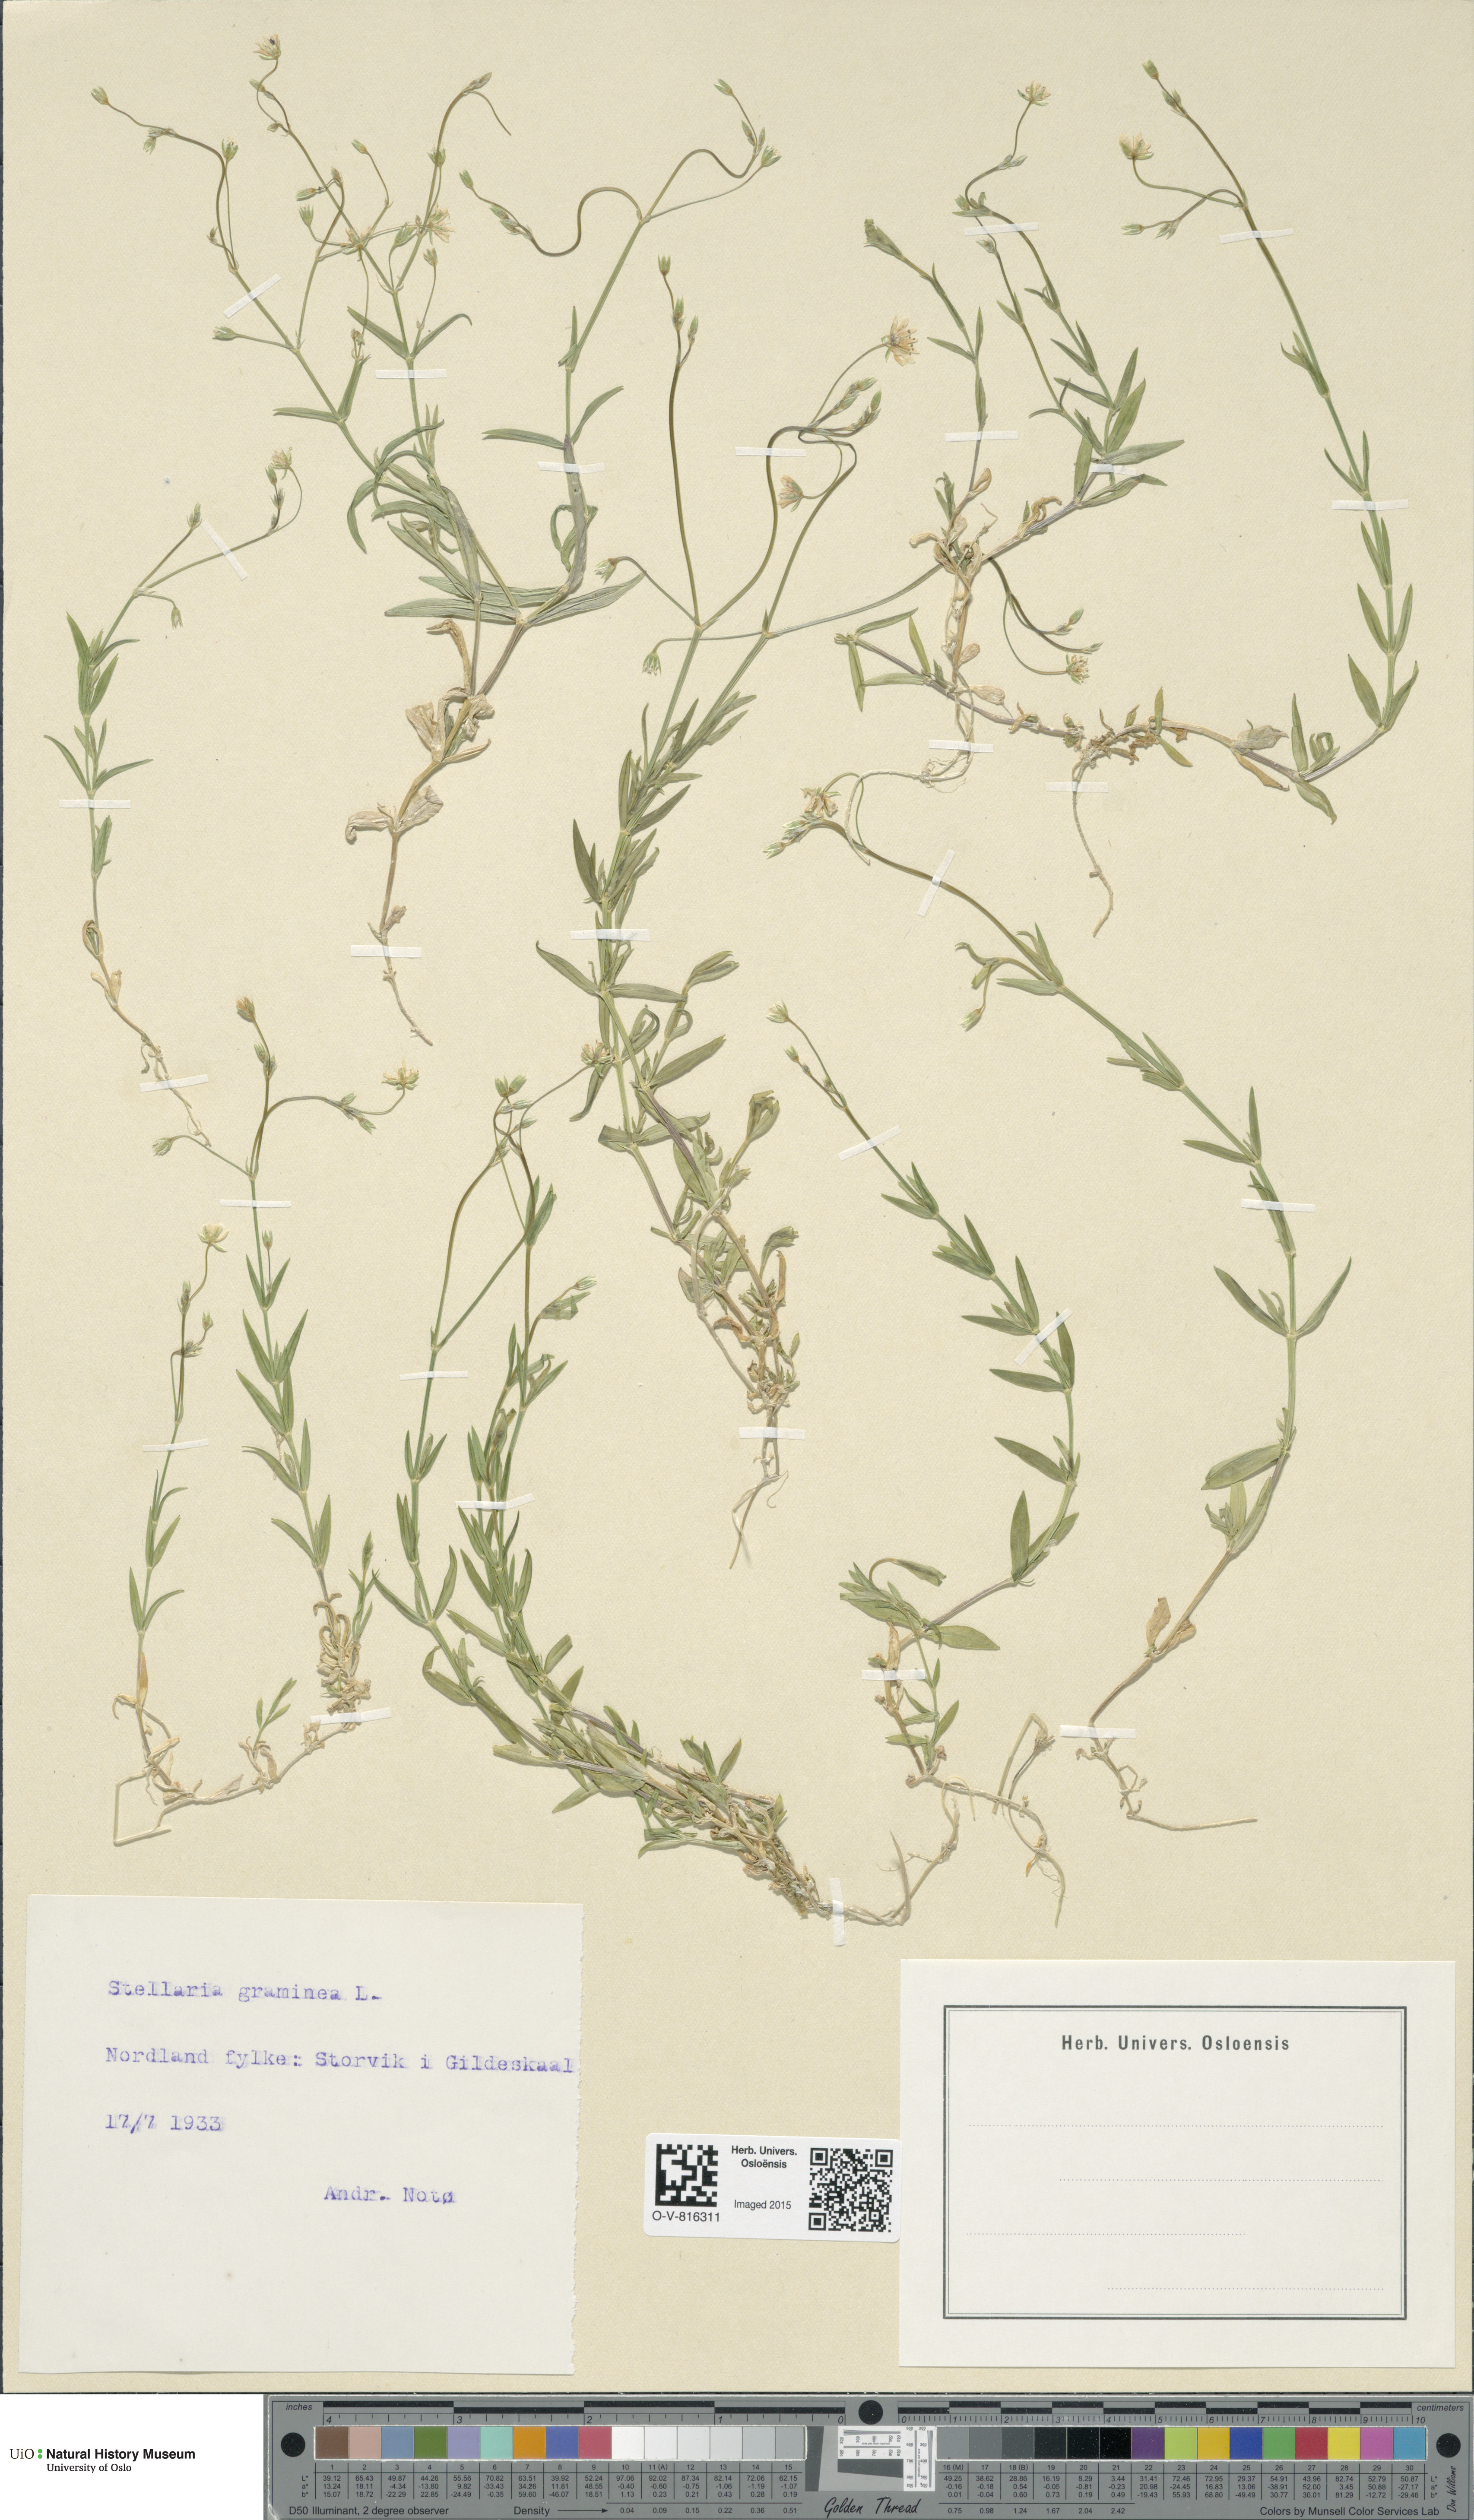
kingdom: Plantae
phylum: Tracheophyta
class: Magnoliopsida
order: Caryophyllales
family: Caryophyllaceae
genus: Stellaria
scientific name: Stellaria graminea
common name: Grass-like starwort
